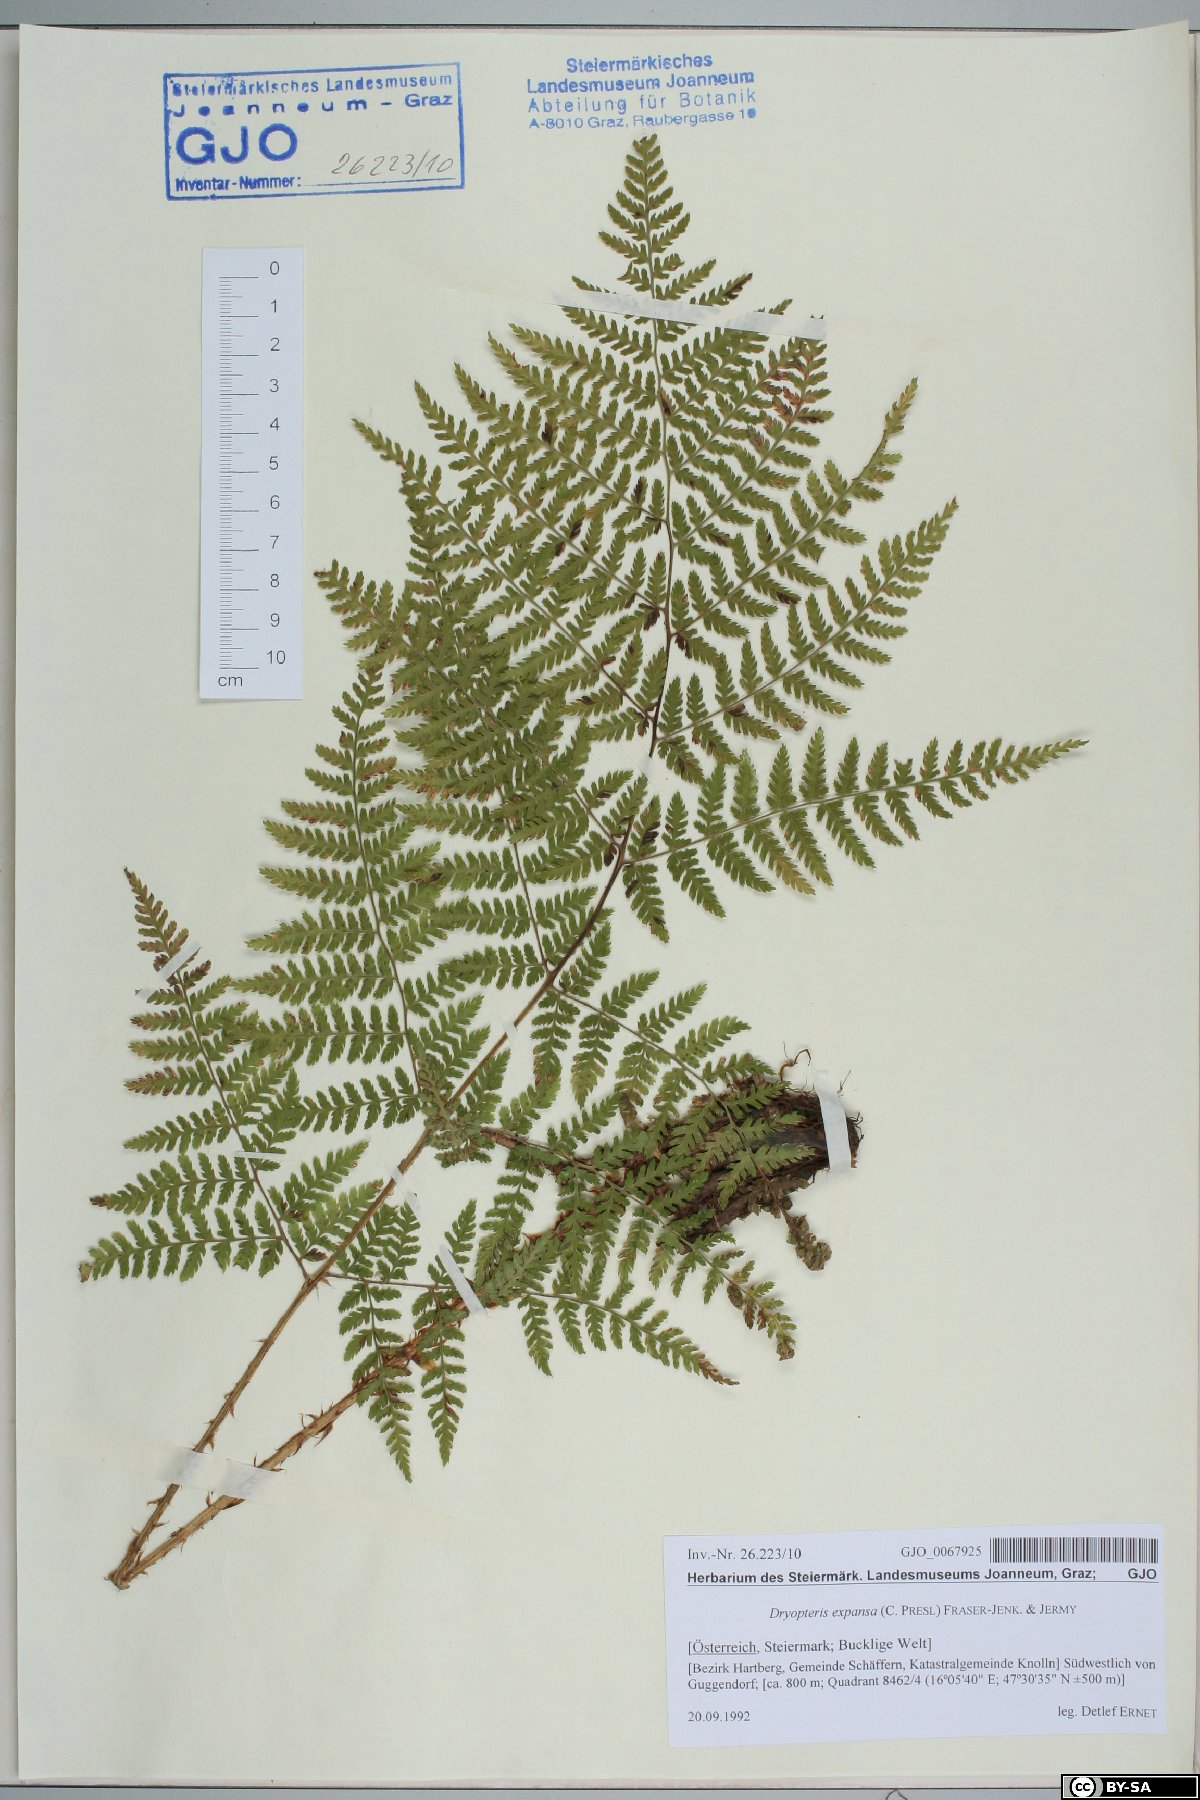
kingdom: Plantae
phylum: Tracheophyta
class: Polypodiopsida
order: Polypodiales
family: Dryopteridaceae
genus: Dryopteris
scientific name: Dryopteris expansa
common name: Northern buckler fern
